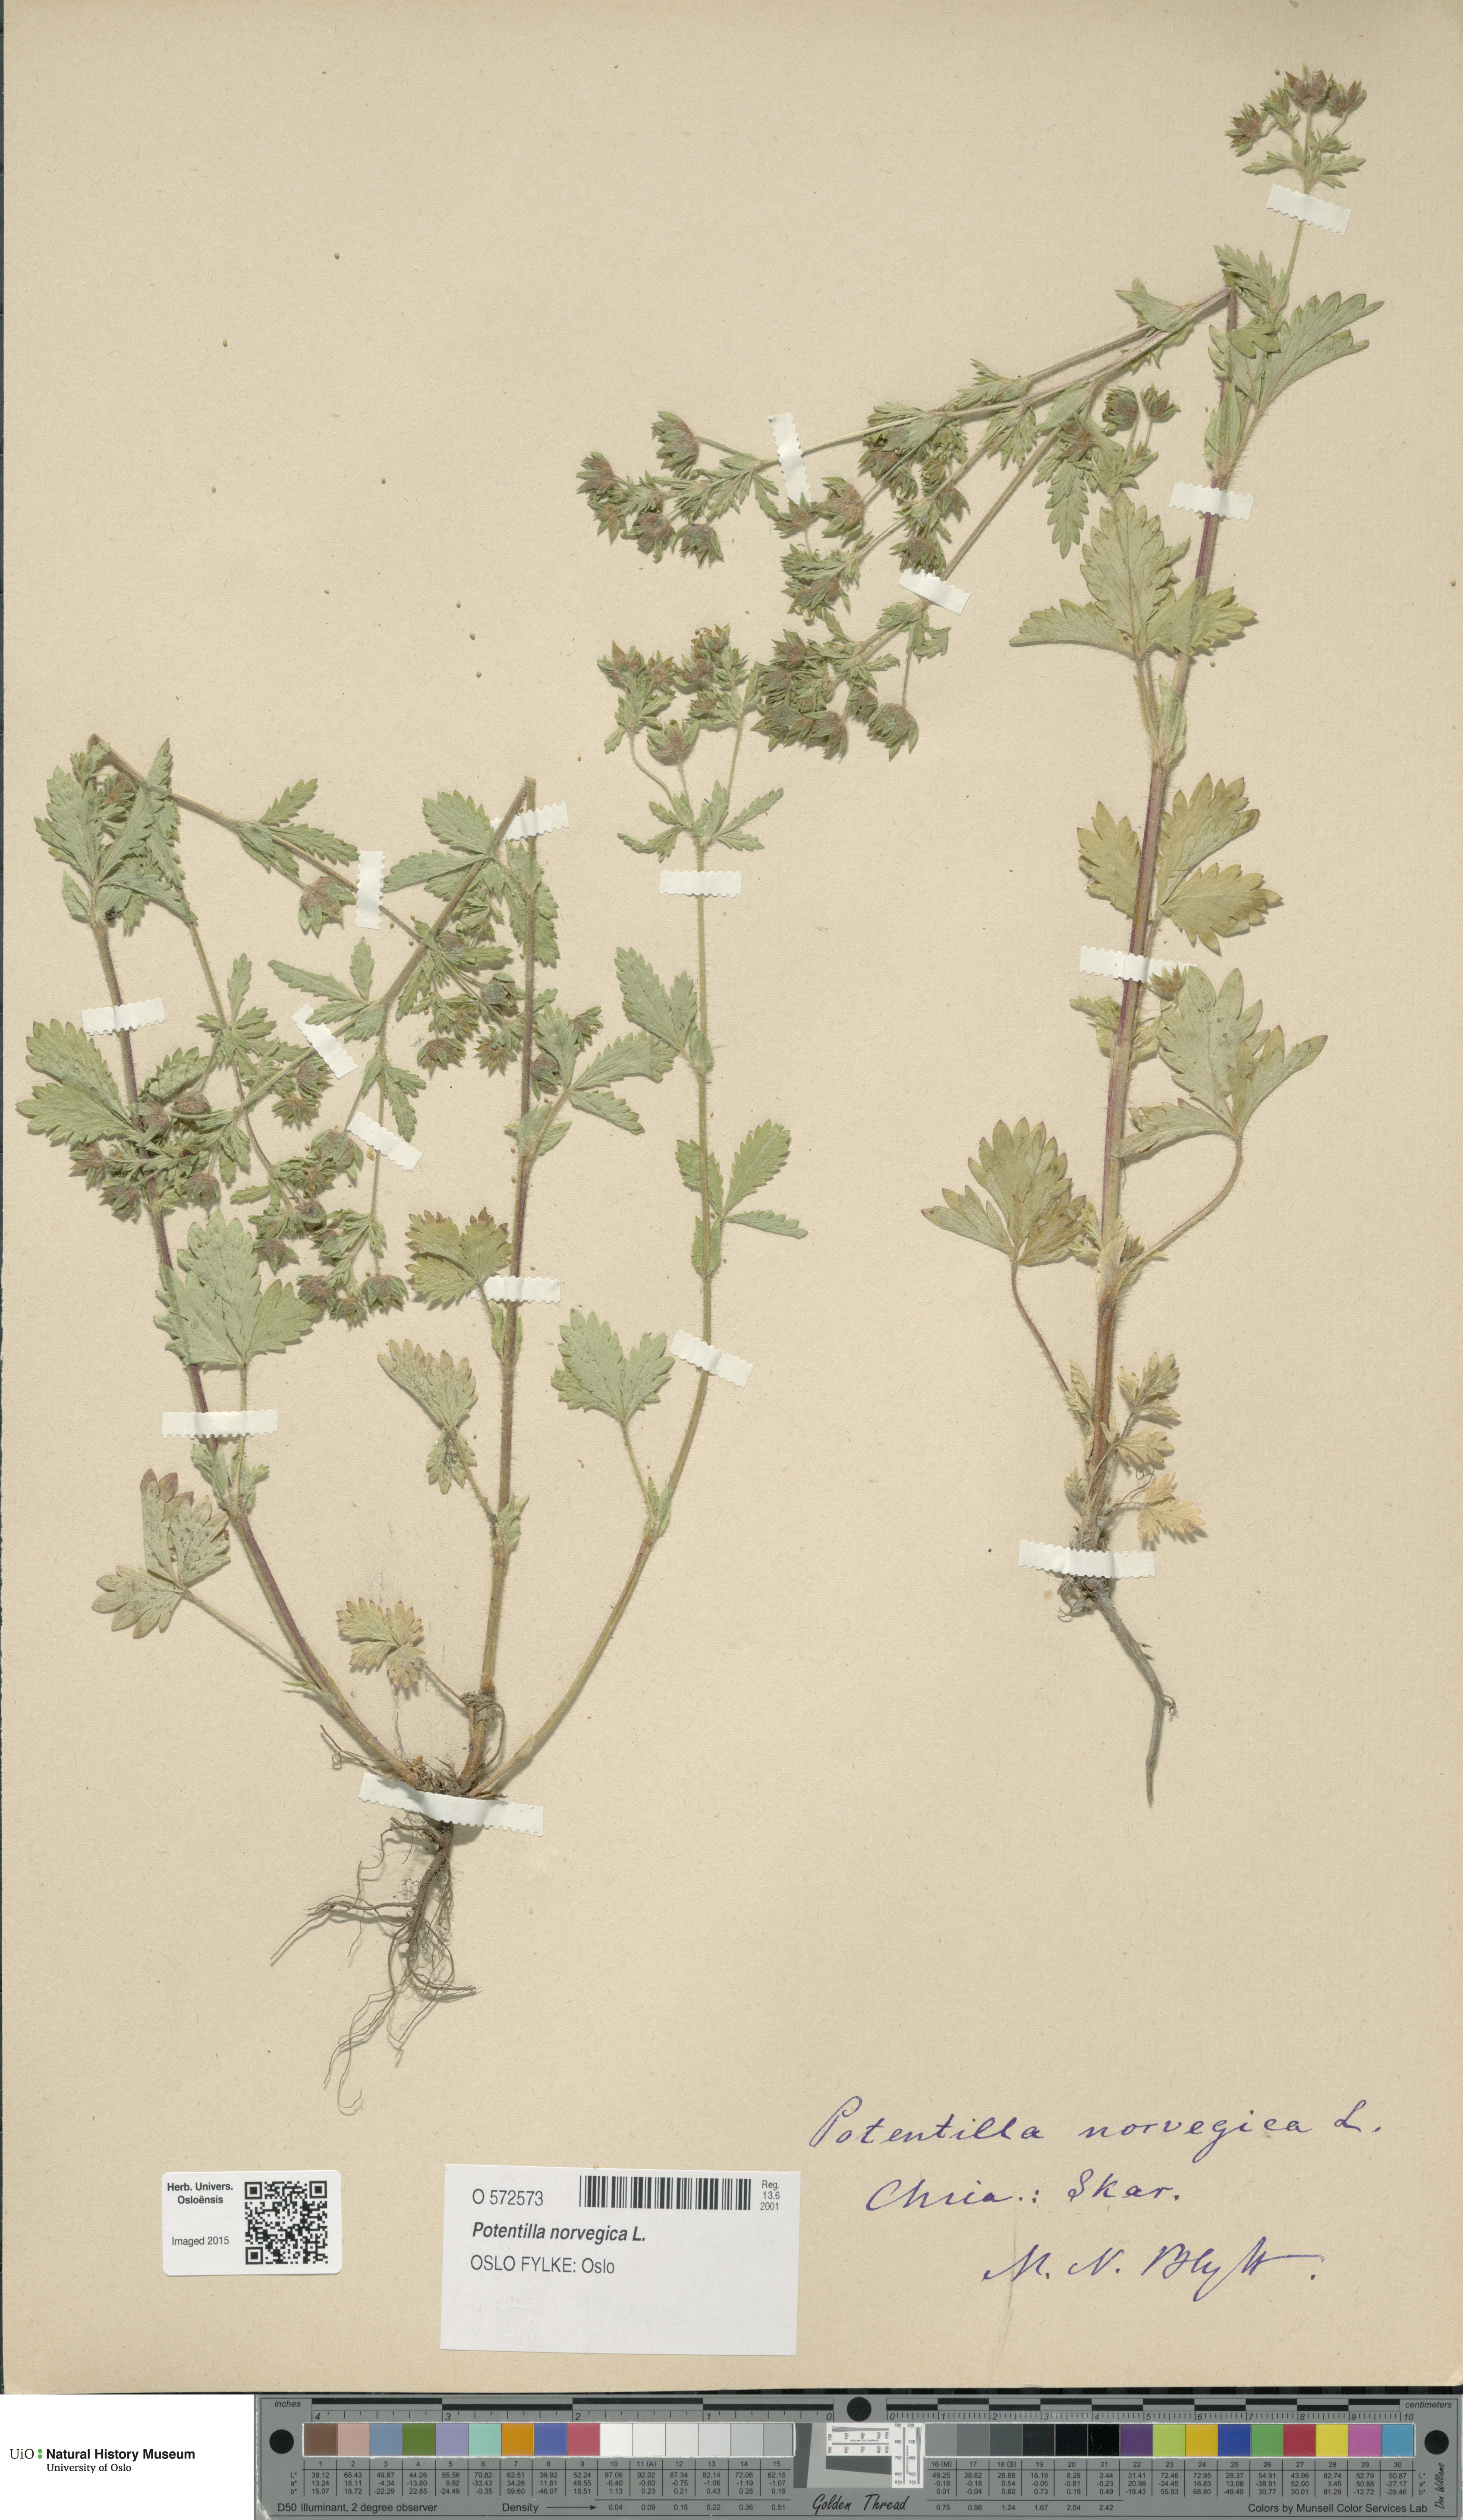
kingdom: Plantae
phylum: Tracheophyta
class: Magnoliopsida
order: Rosales
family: Rosaceae
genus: Potentilla
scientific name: Potentilla norvegica
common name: Ternate-leaved cinquefoil
